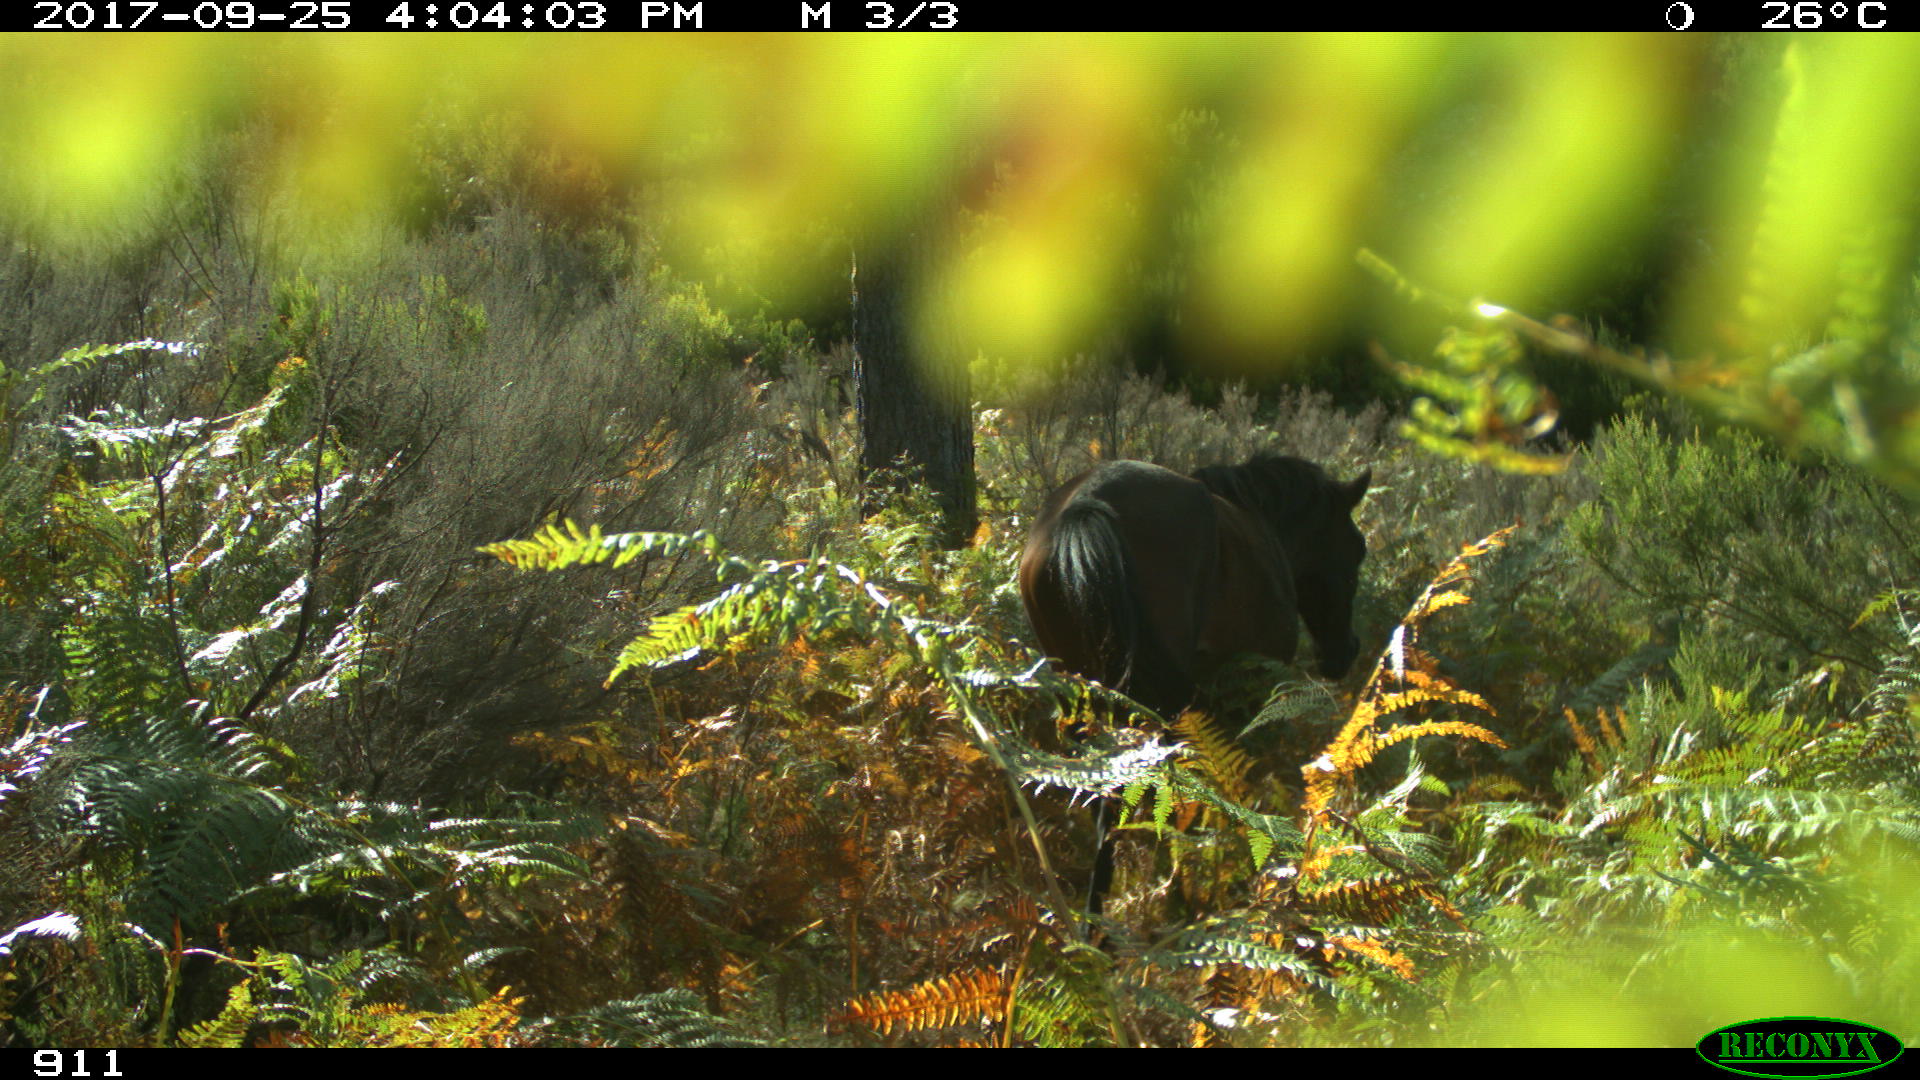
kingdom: Animalia
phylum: Chordata
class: Mammalia
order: Perissodactyla
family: Equidae
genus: Equus
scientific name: Equus caballus
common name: Horse
